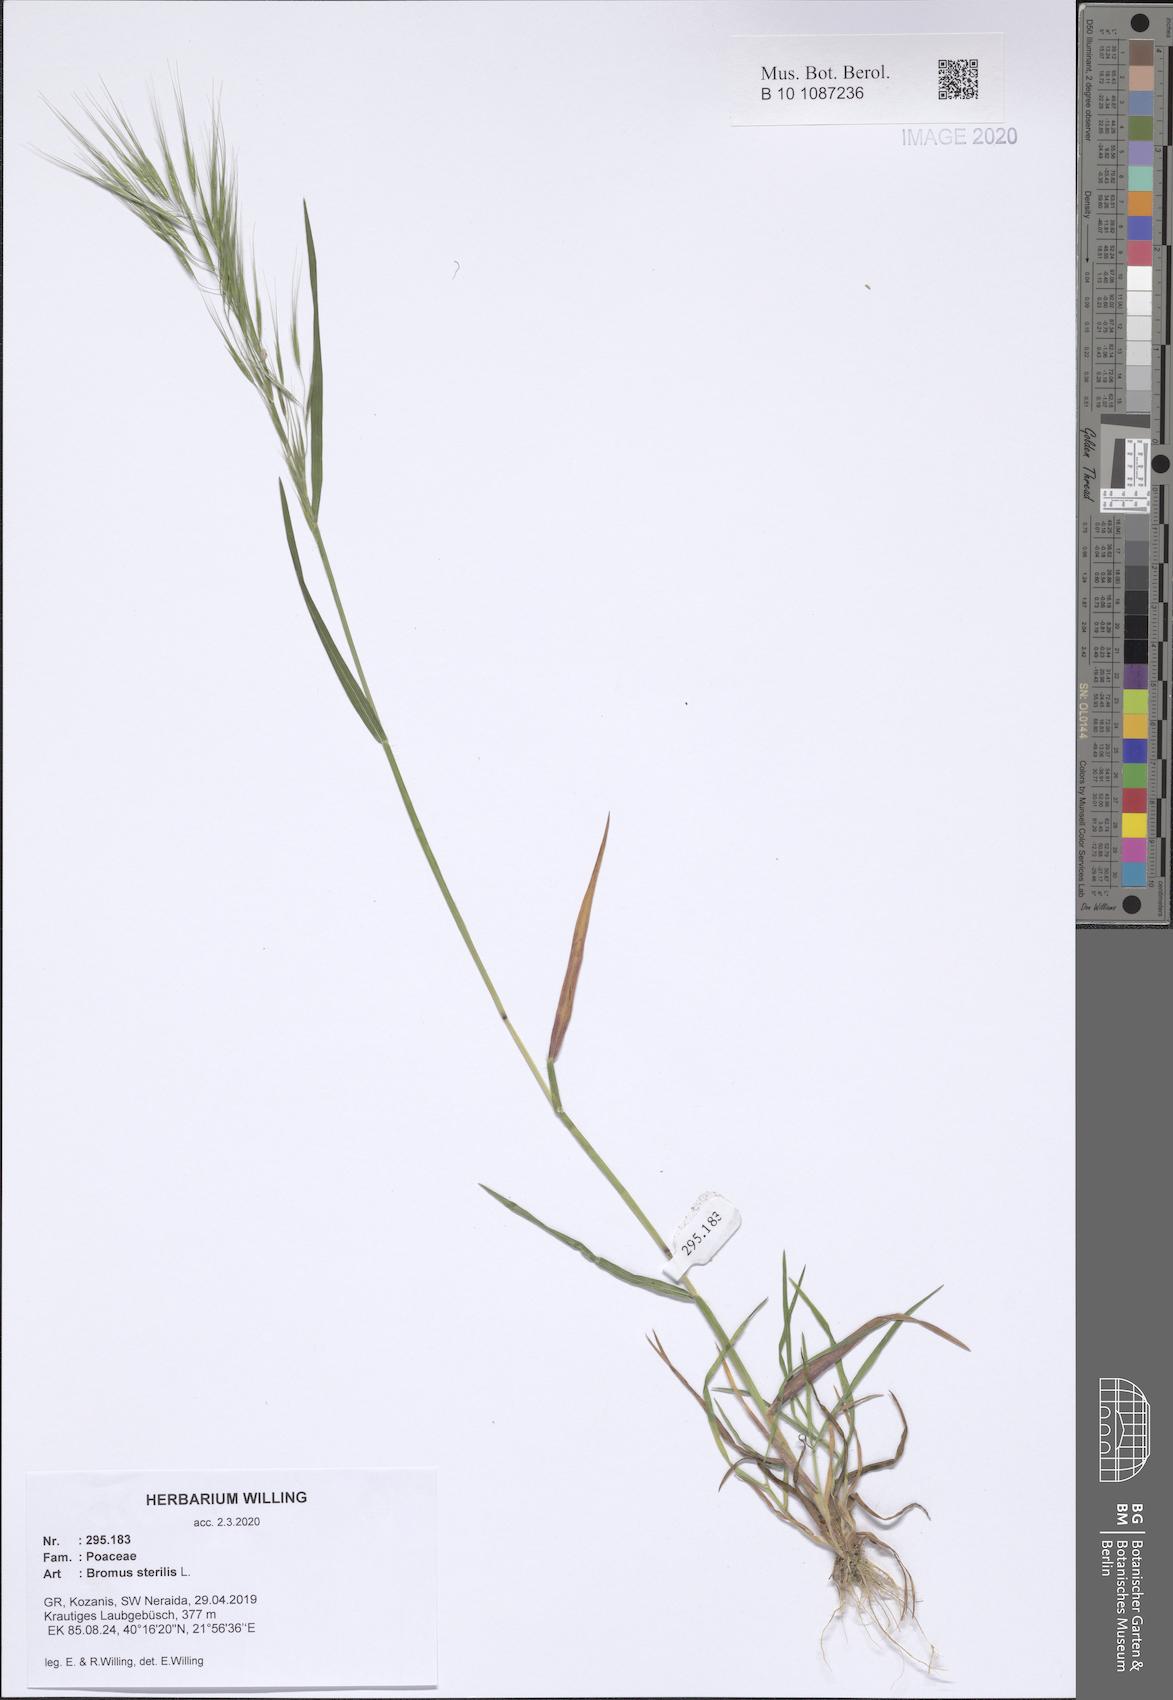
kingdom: Plantae
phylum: Tracheophyta
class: Liliopsida
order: Poales
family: Poaceae
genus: Bromus
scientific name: Bromus sterilis
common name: Poverty brome
